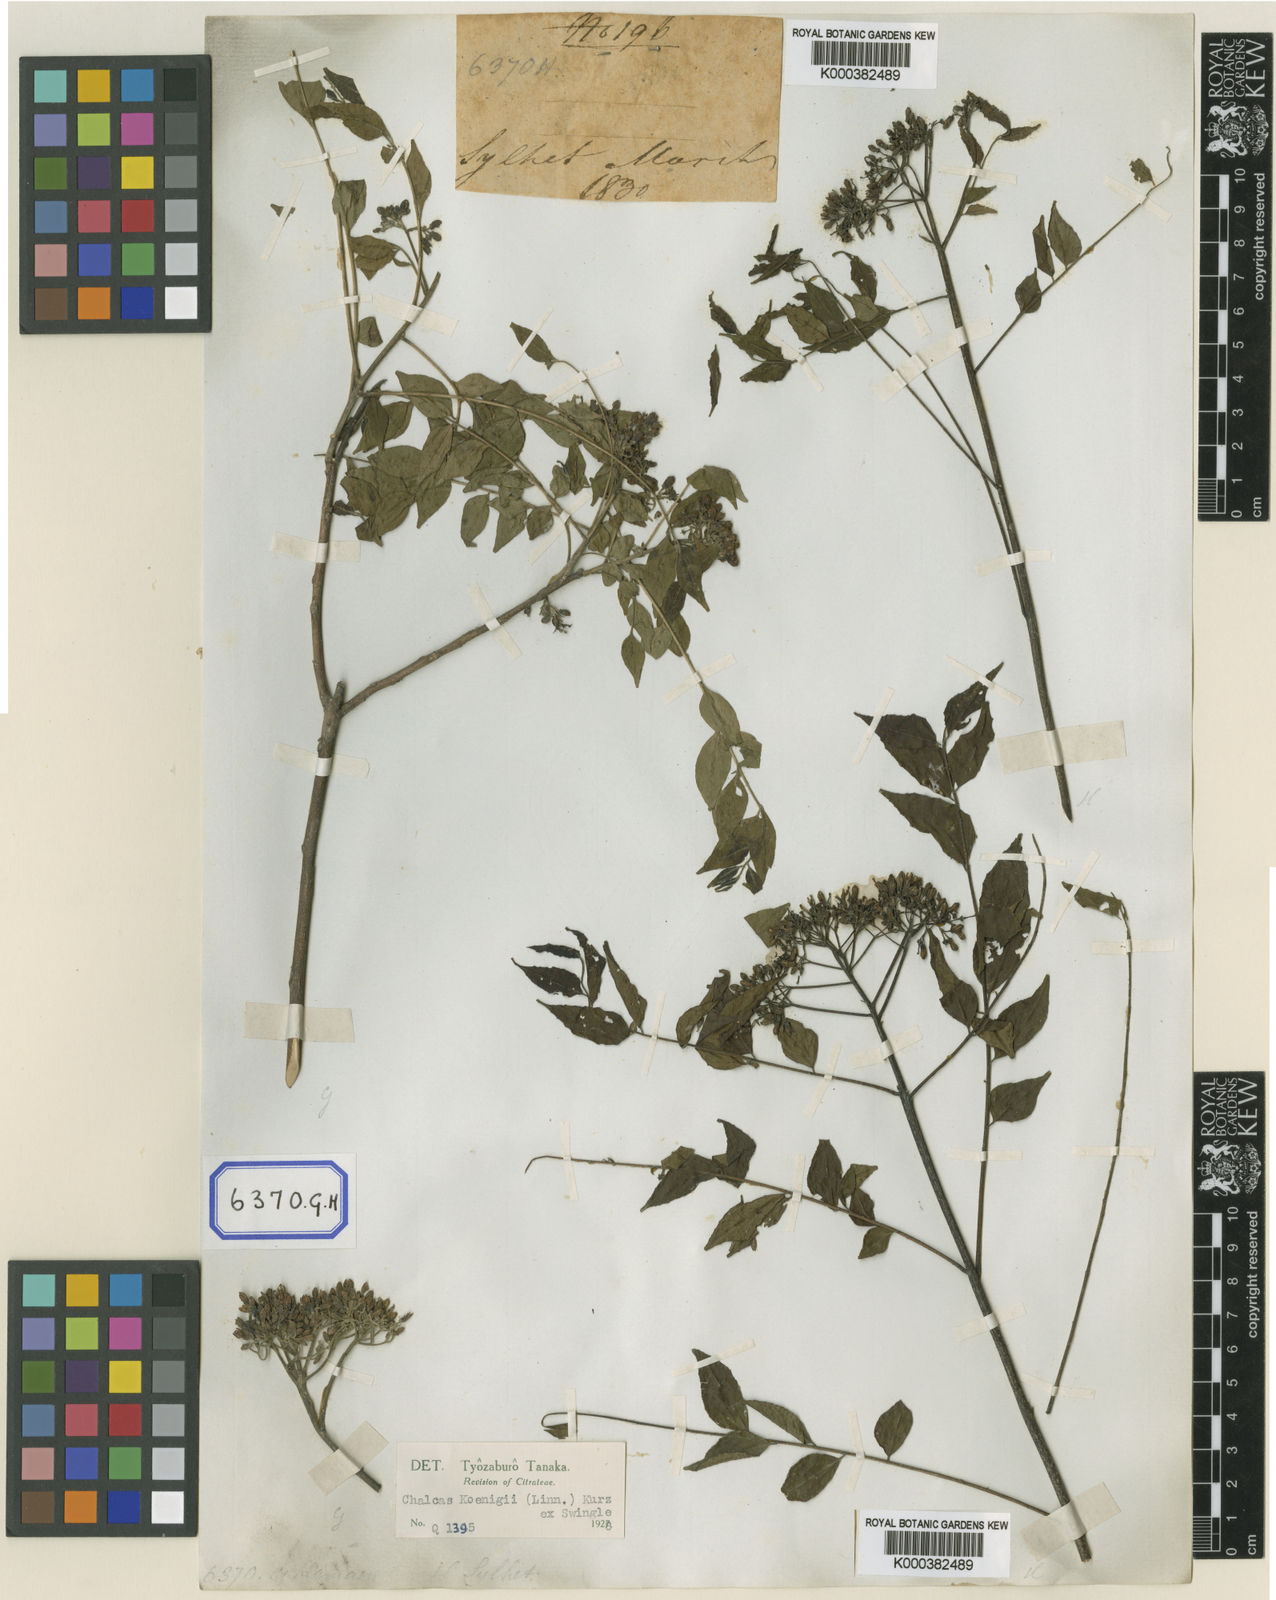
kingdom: Plantae
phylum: Tracheophyta
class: Magnoliopsida
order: Sapindales
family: Rutaceae
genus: Murraya
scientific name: Murraya koenigii
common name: Curry-plant
